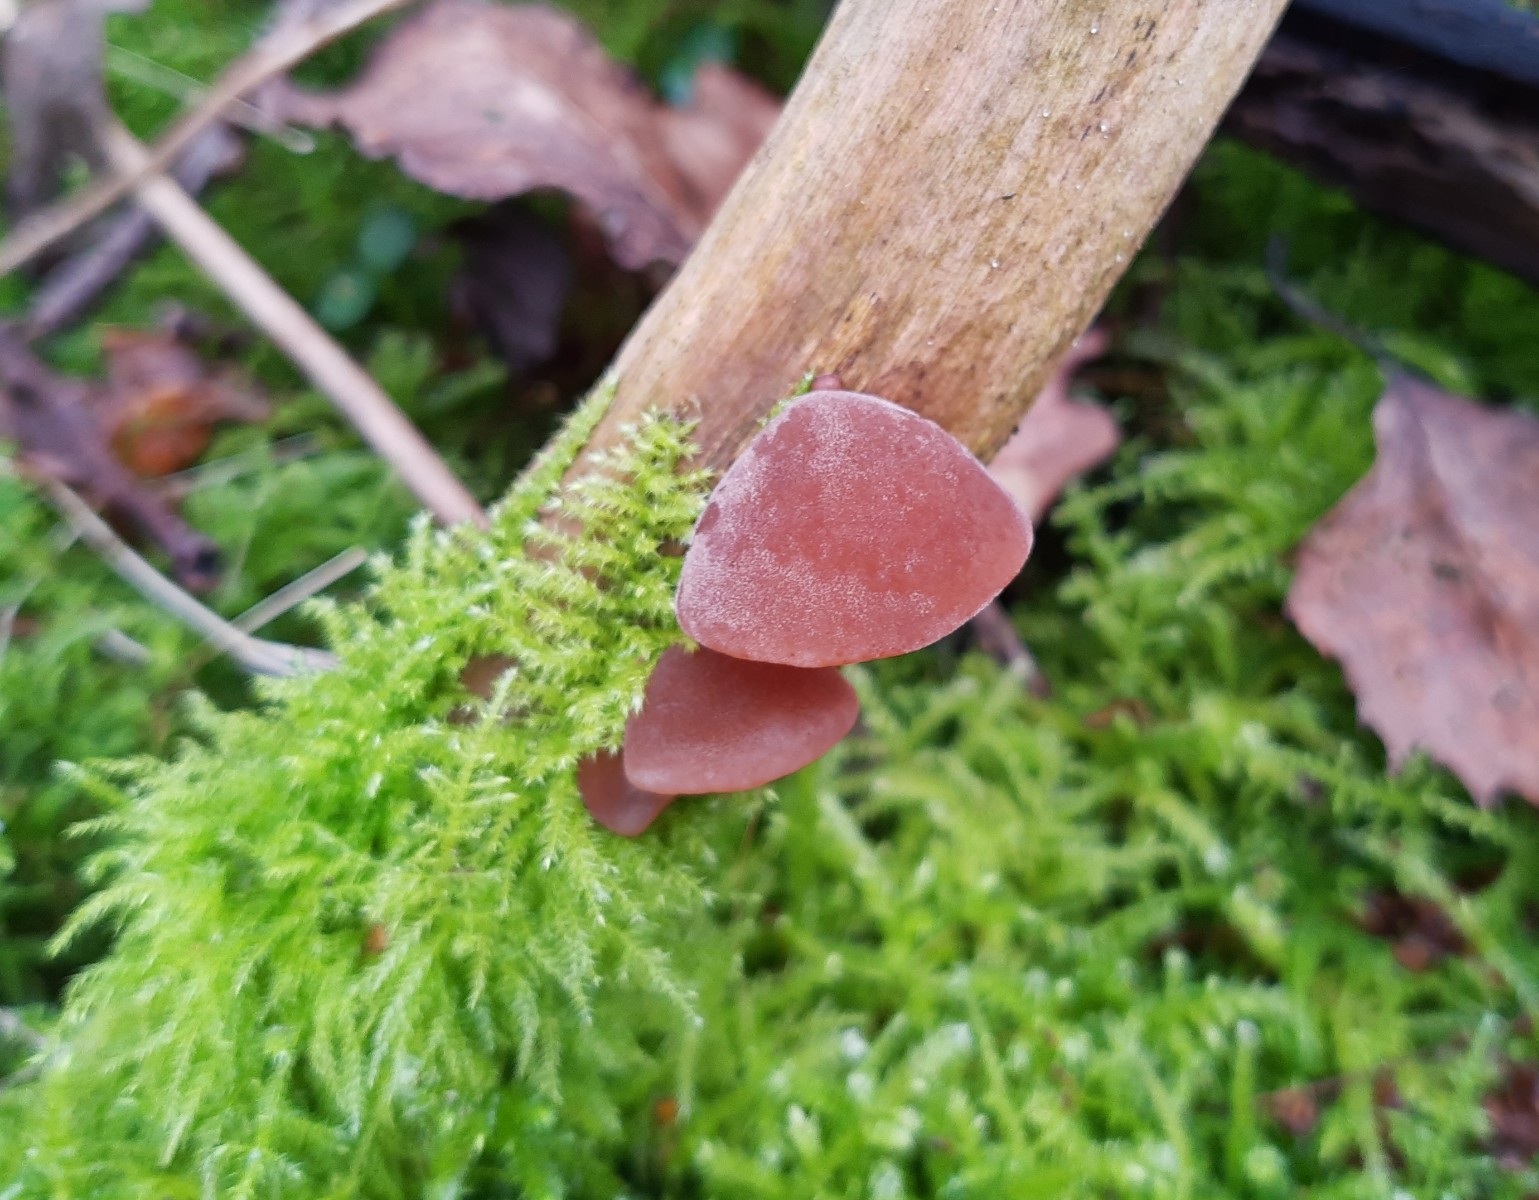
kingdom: Fungi
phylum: Basidiomycota
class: Agaricomycetes
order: Auriculariales
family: Auriculariaceae
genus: Auricularia
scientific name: Auricularia auricula-judae
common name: almindelig judasøre
